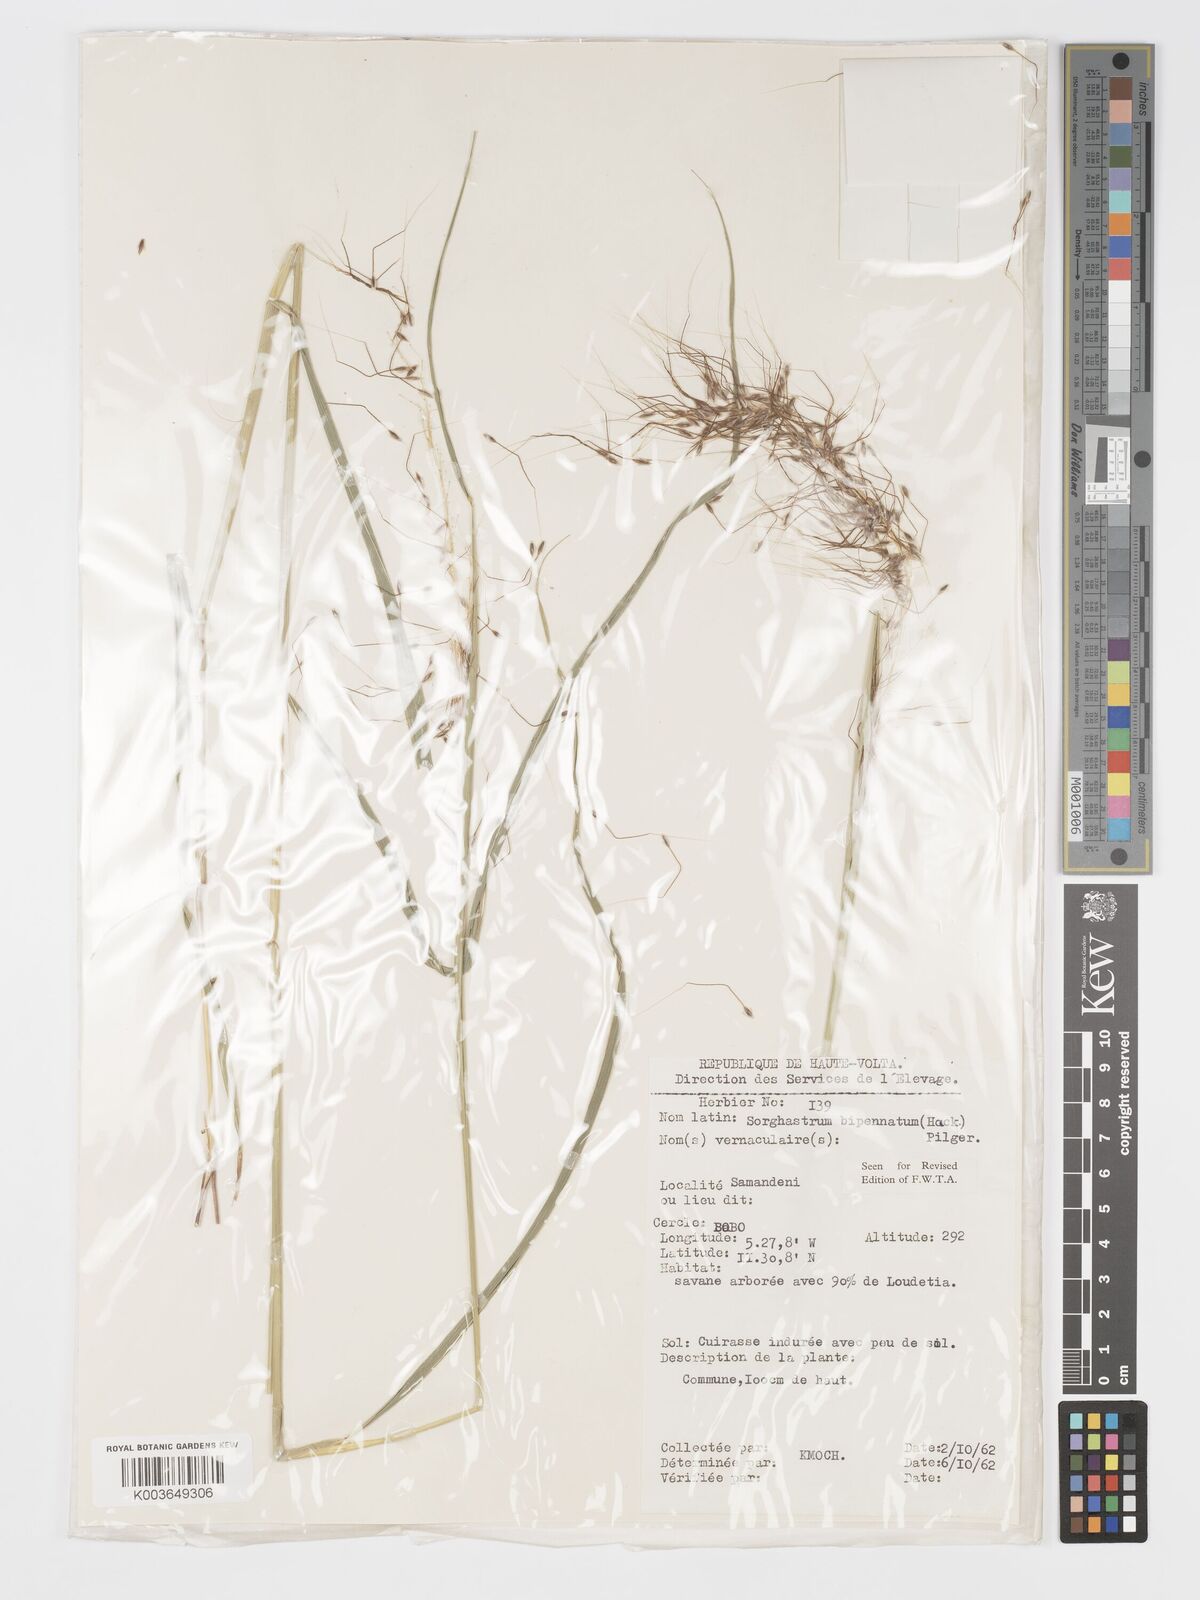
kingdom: Plantae
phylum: Tracheophyta
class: Liliopsida
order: Poales
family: Poaceae
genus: Sorghastrum
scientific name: Sorghastrum incompletum
